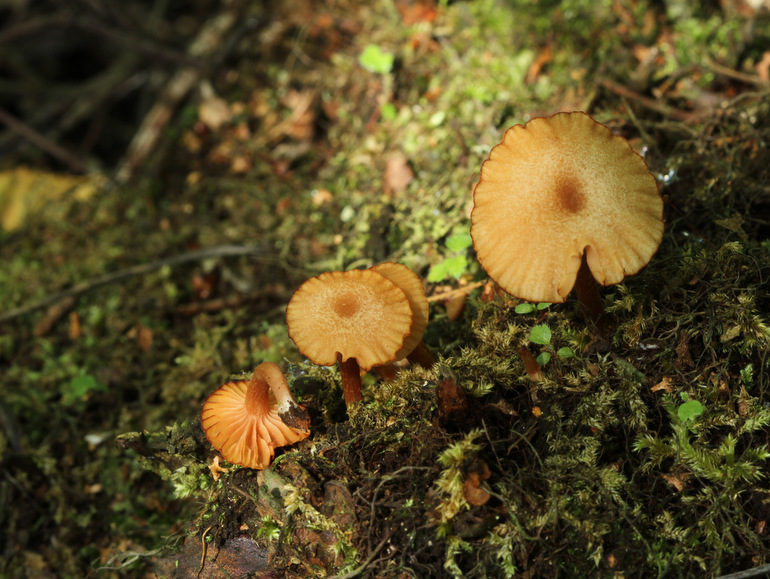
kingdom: Fungi
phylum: Basidiomycota
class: Agaricomycetes
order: Agaricales
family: Hydnangiaceae
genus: Laccaria
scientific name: Laccaria laccata
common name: rød ametysthat
